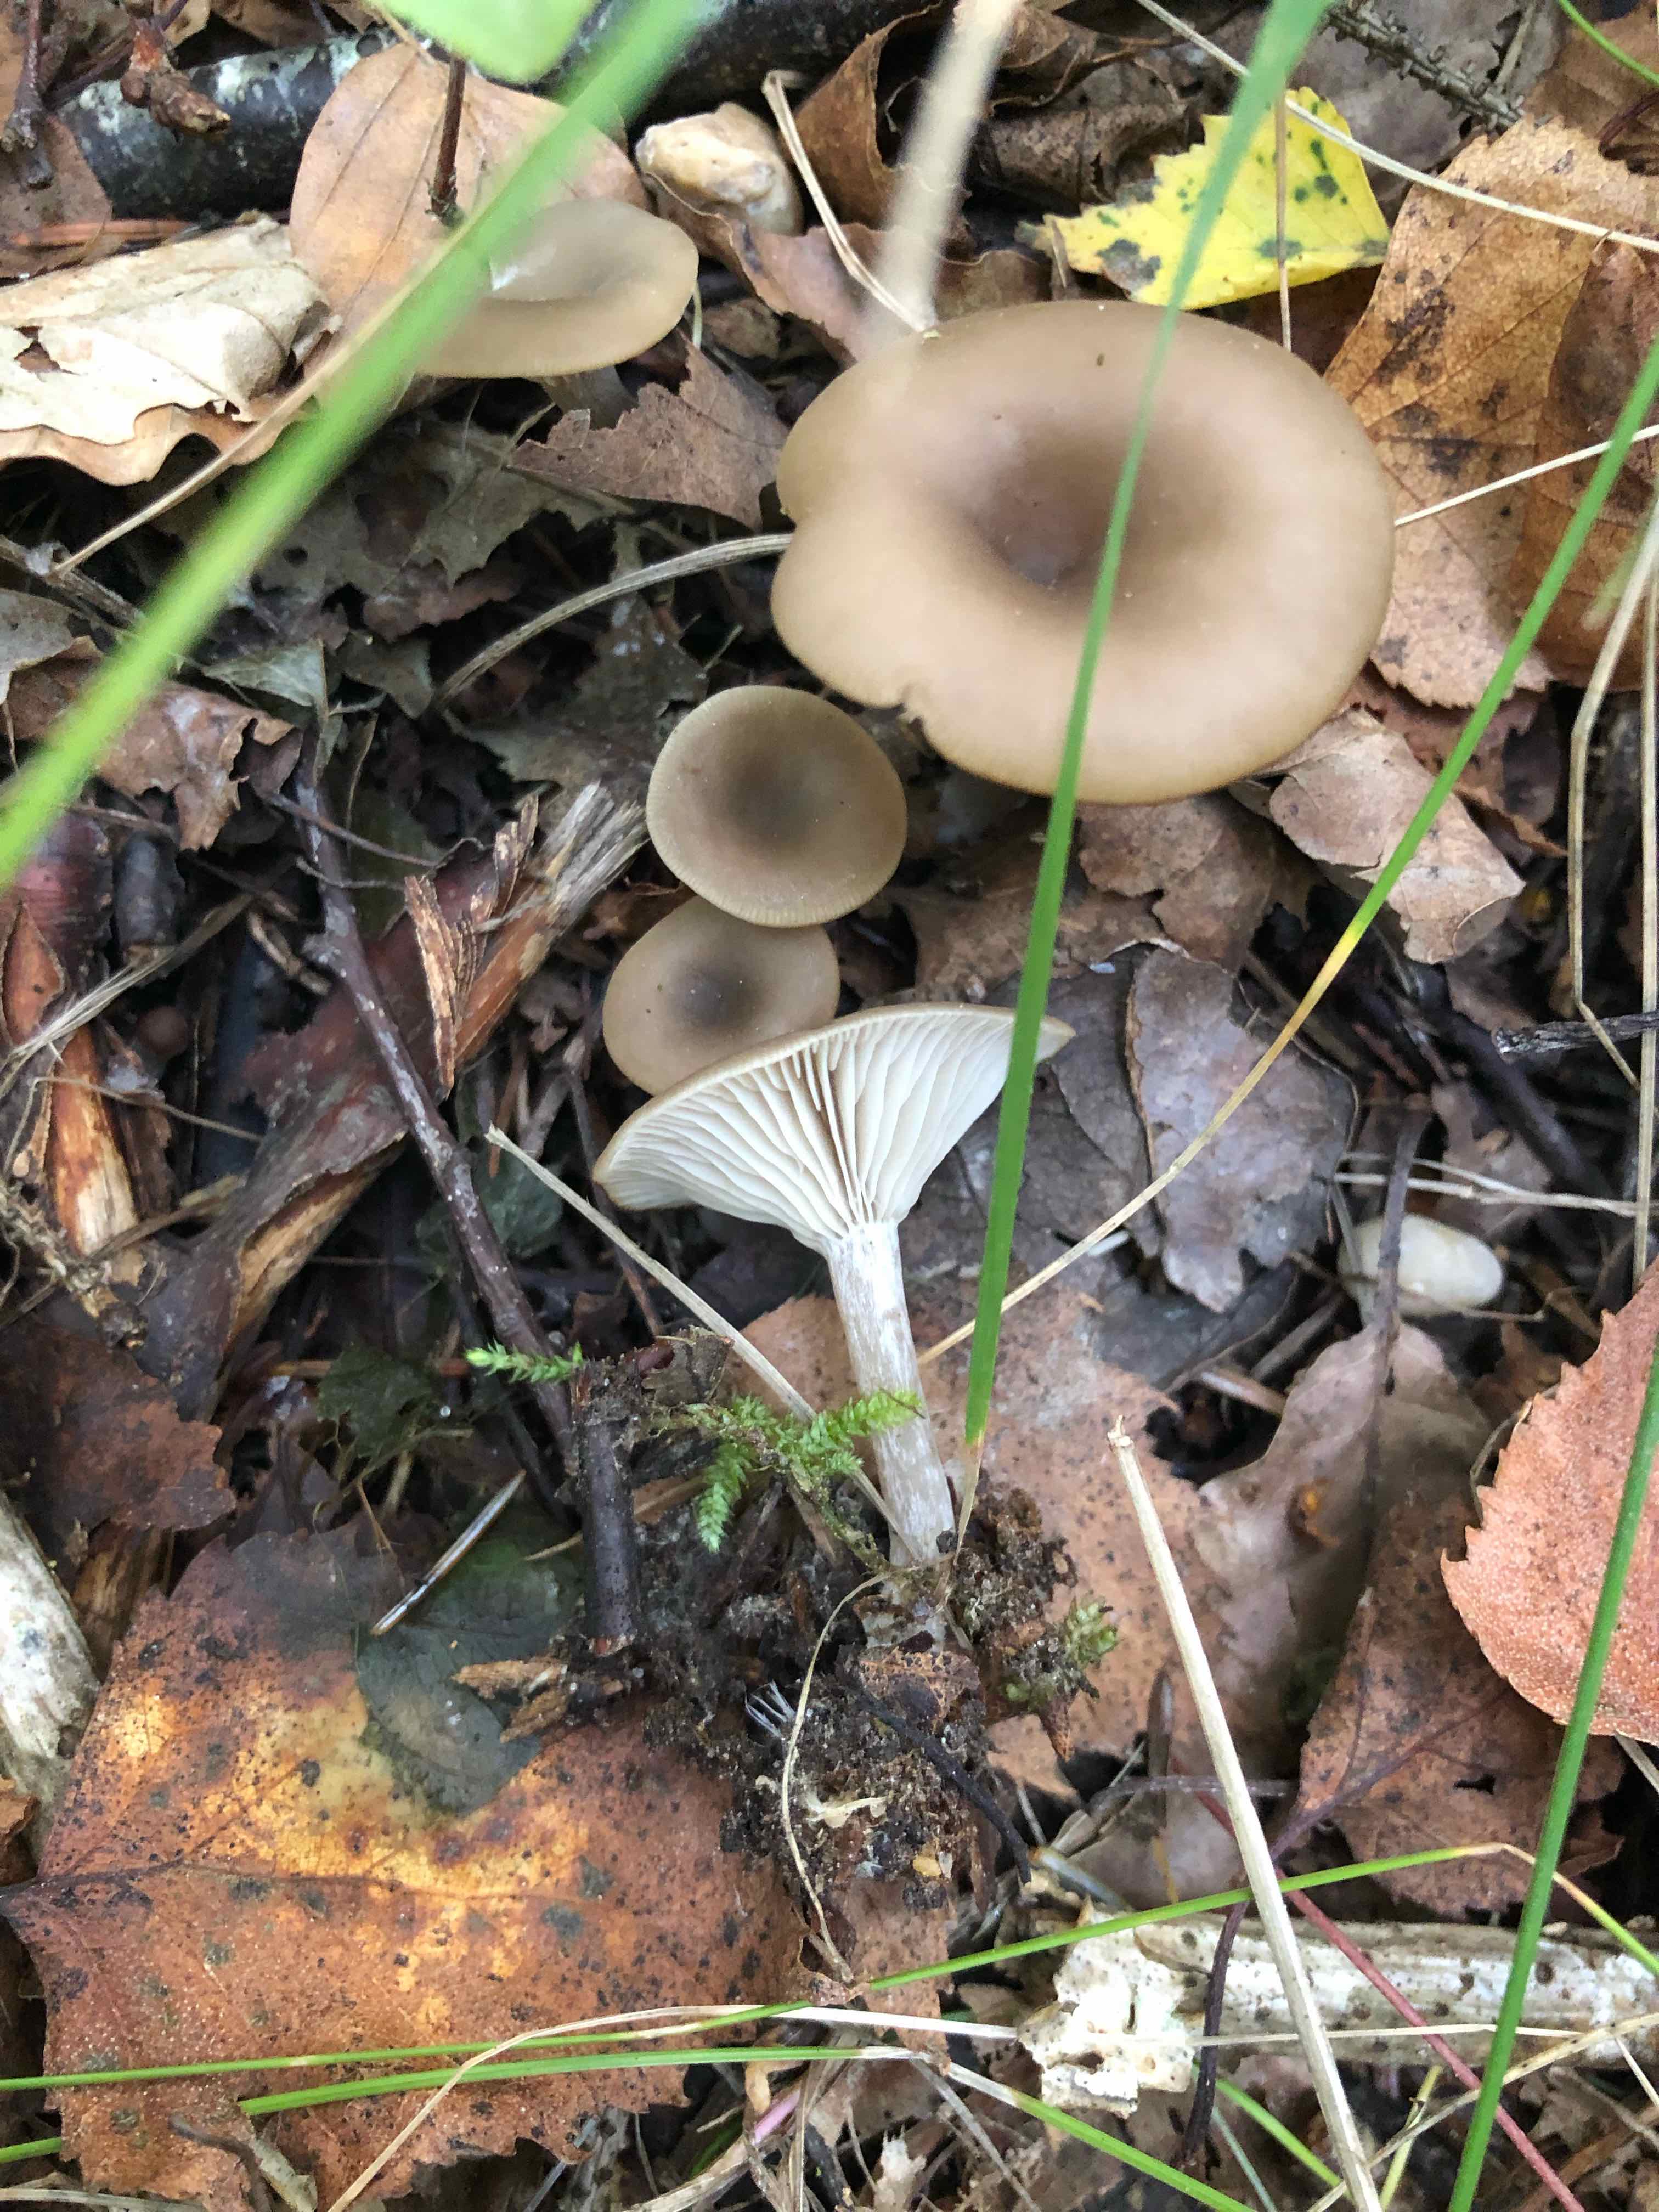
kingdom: Fungi
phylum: Basidiomycota
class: Agaricomycetes
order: Agaricales
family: Tricholomataceae
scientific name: Tricholomataceae
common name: ridderhatfamilien
